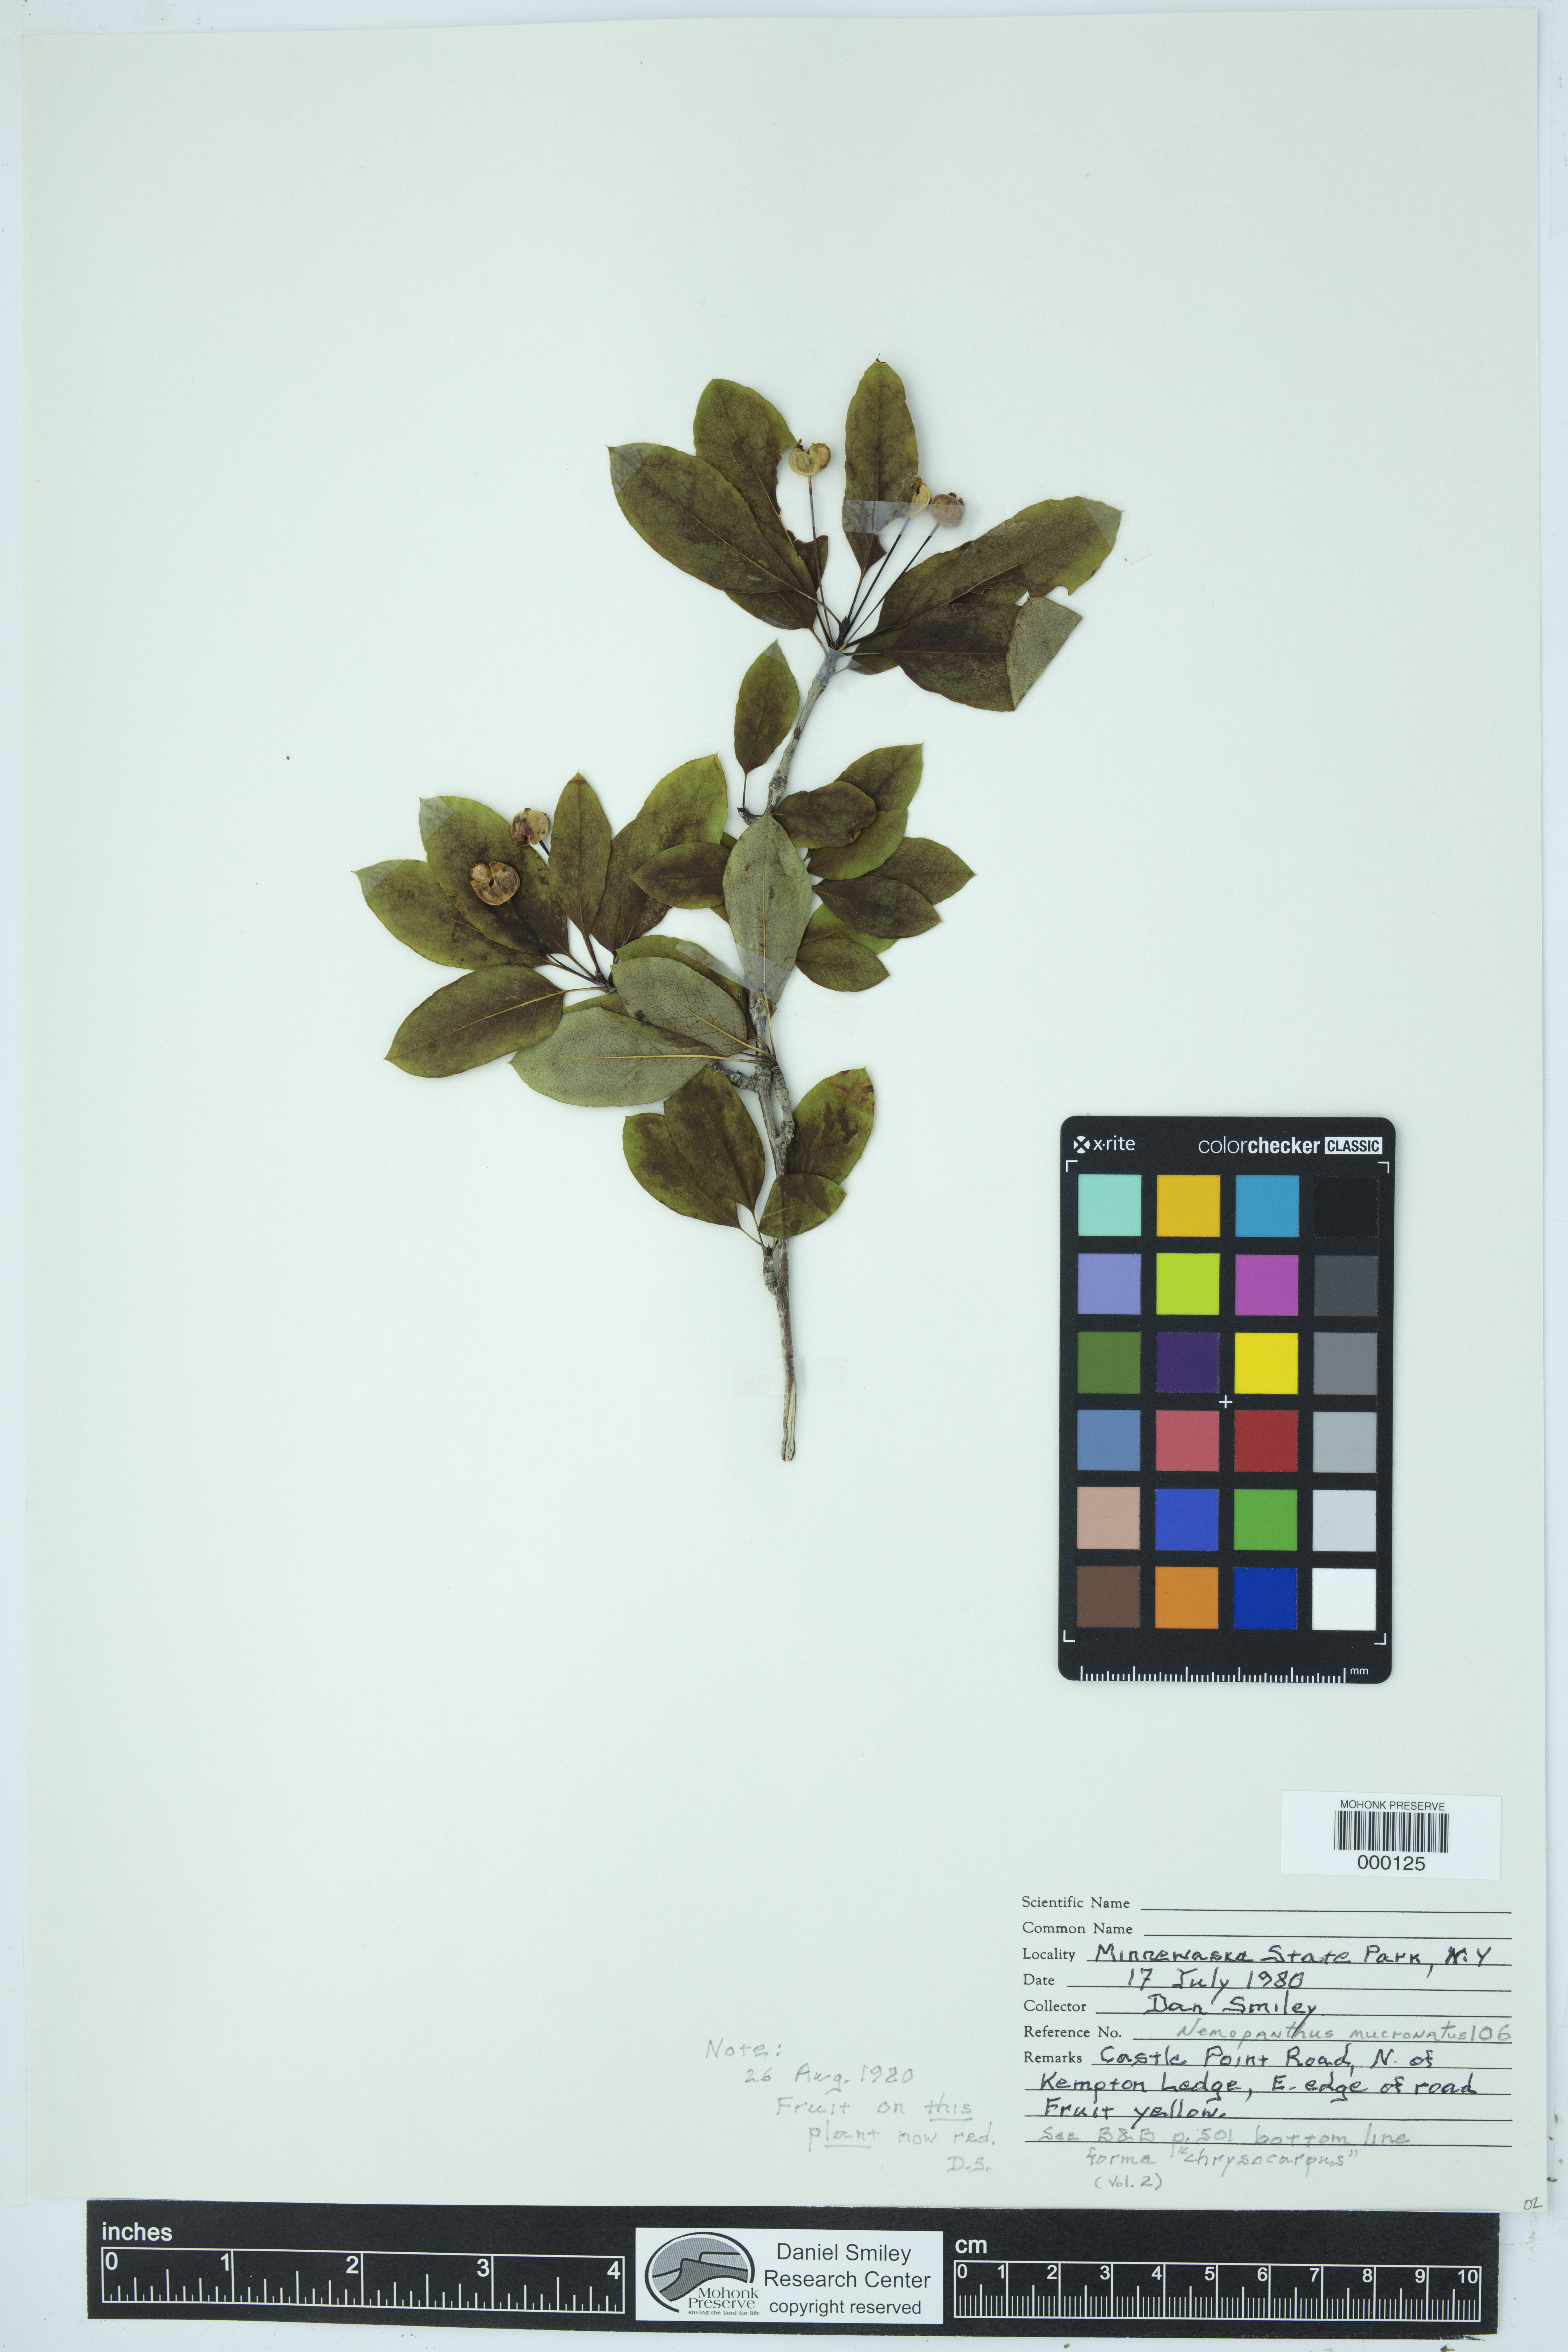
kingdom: Plantae
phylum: Tracheophyta
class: Magnoliopsida
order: Aquifoliales
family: Aquifoliaceae
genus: Ilex
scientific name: Ilex mucronata
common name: Catberry
